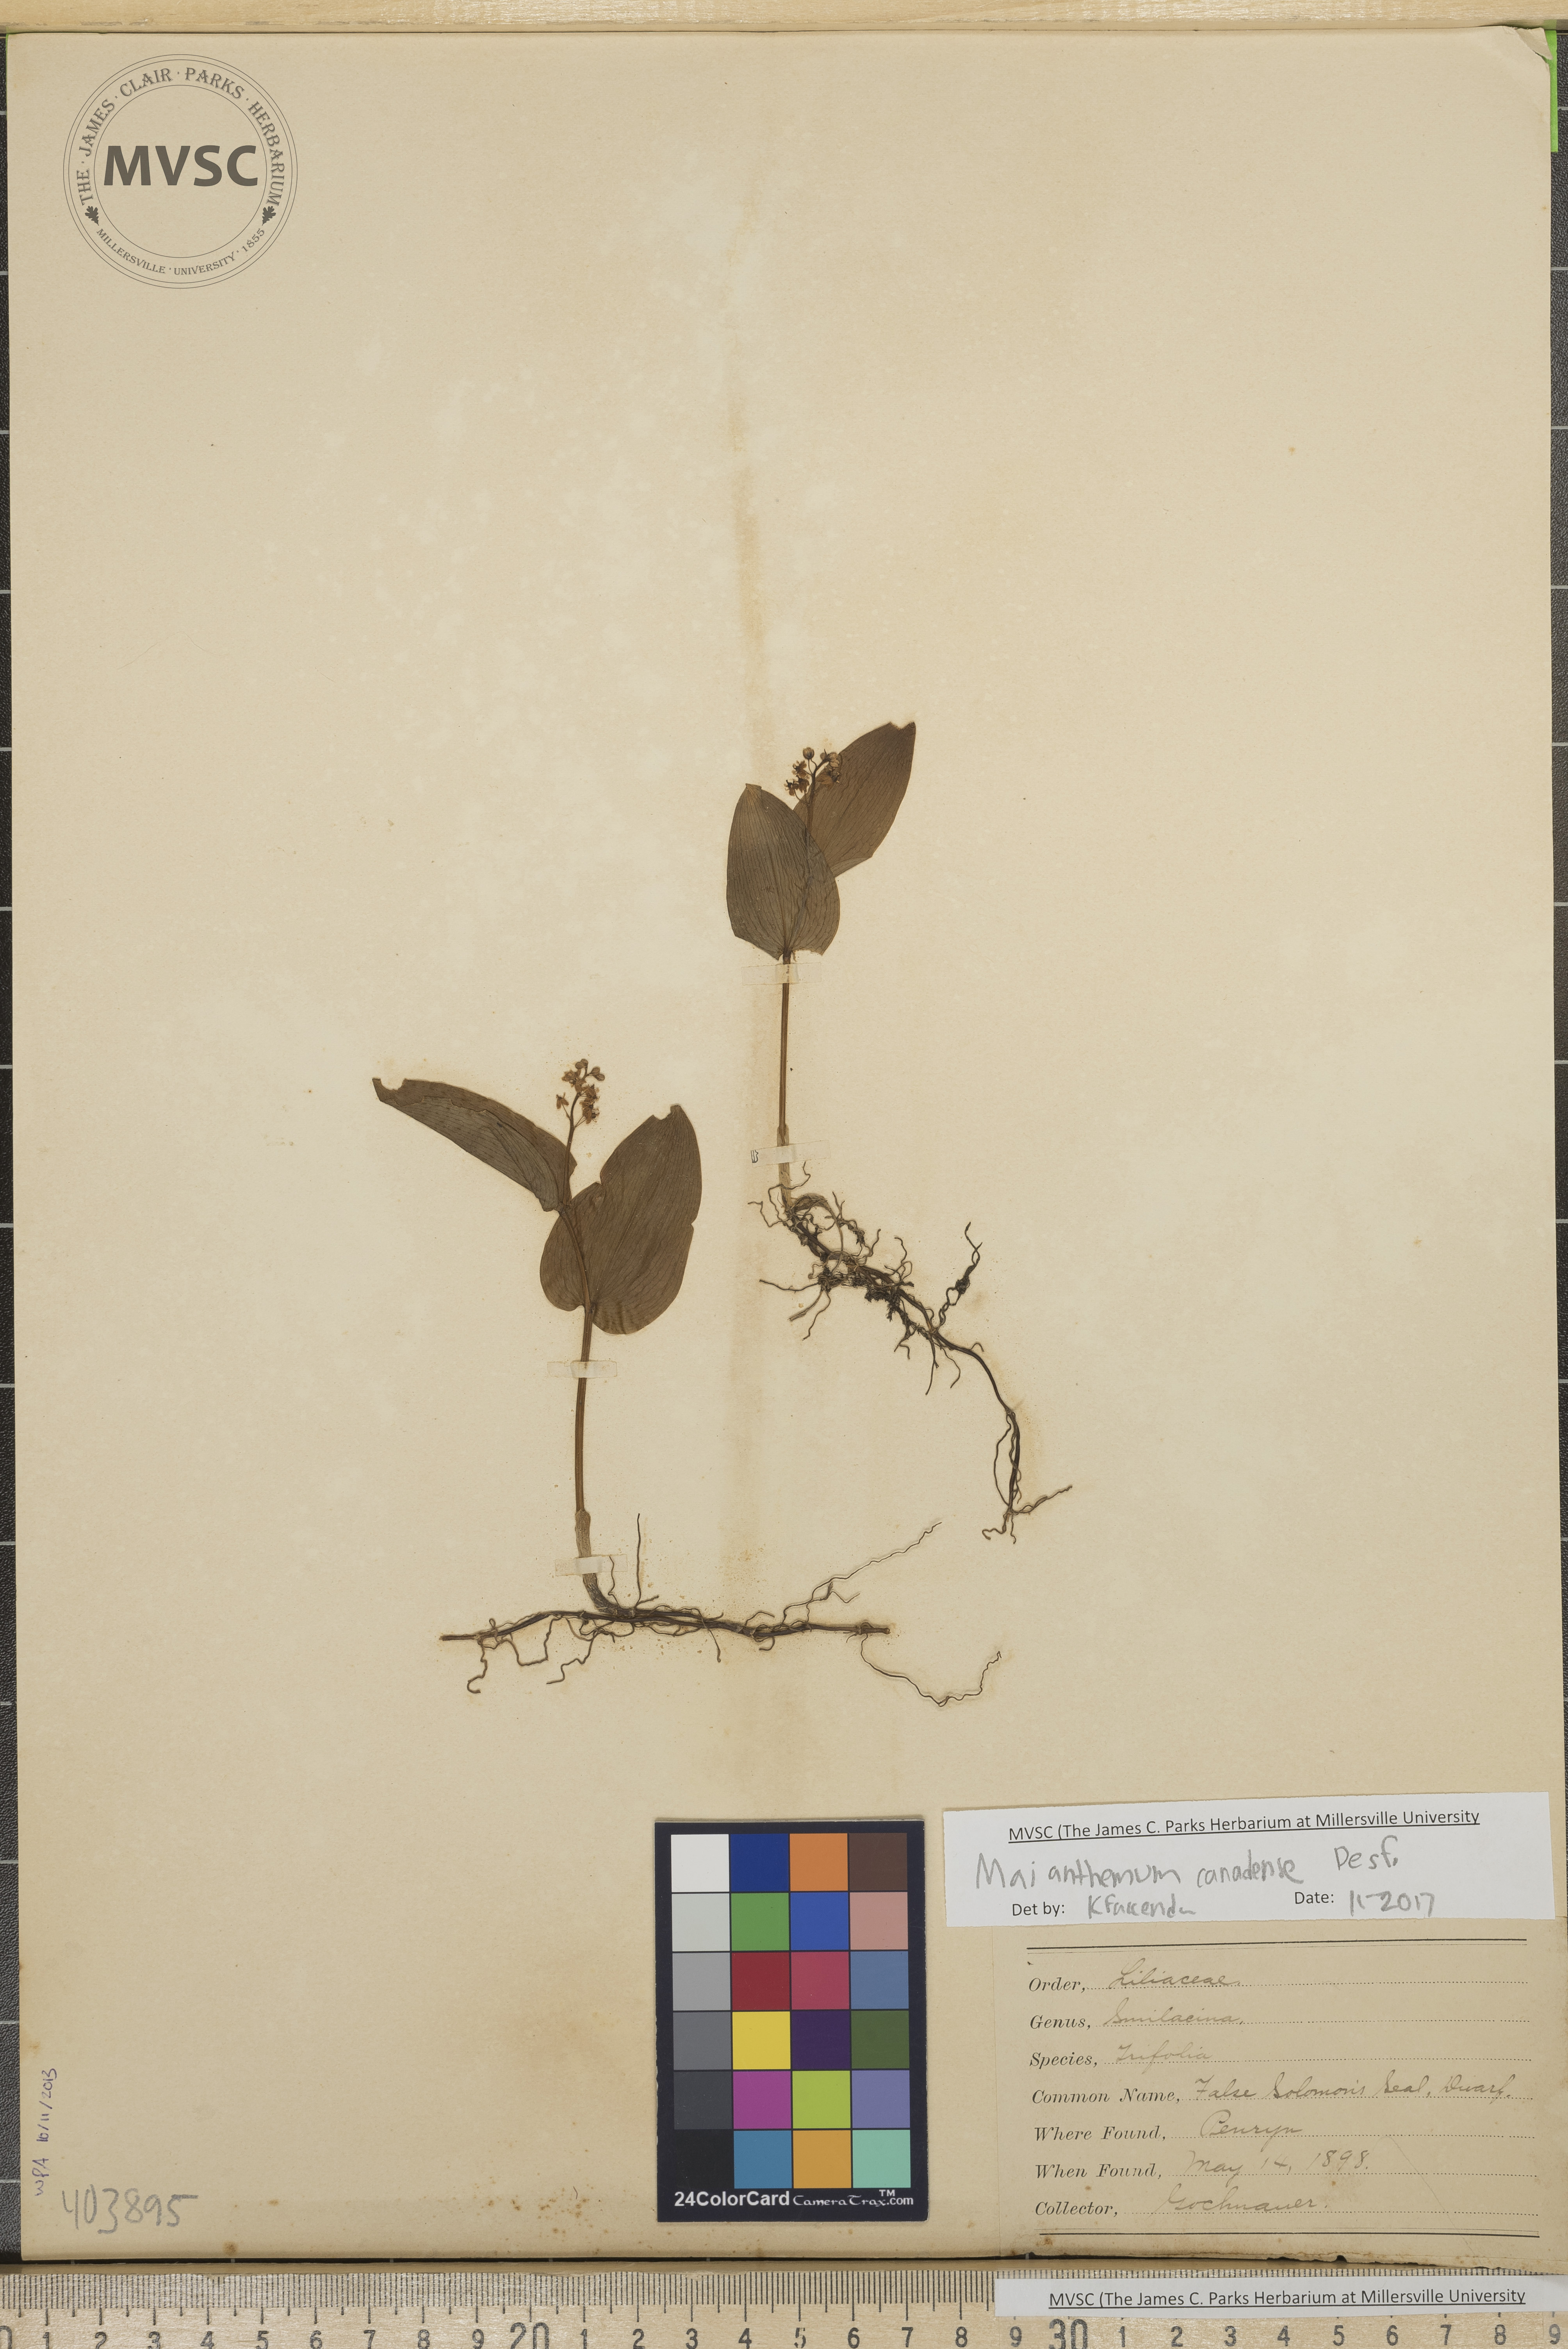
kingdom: Plantae
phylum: Tracheophyta
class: Liliopsida
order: Asparagales
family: Asparagaceae
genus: Maianthemum
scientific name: Maianthemum canadense
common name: Canada mayflower
